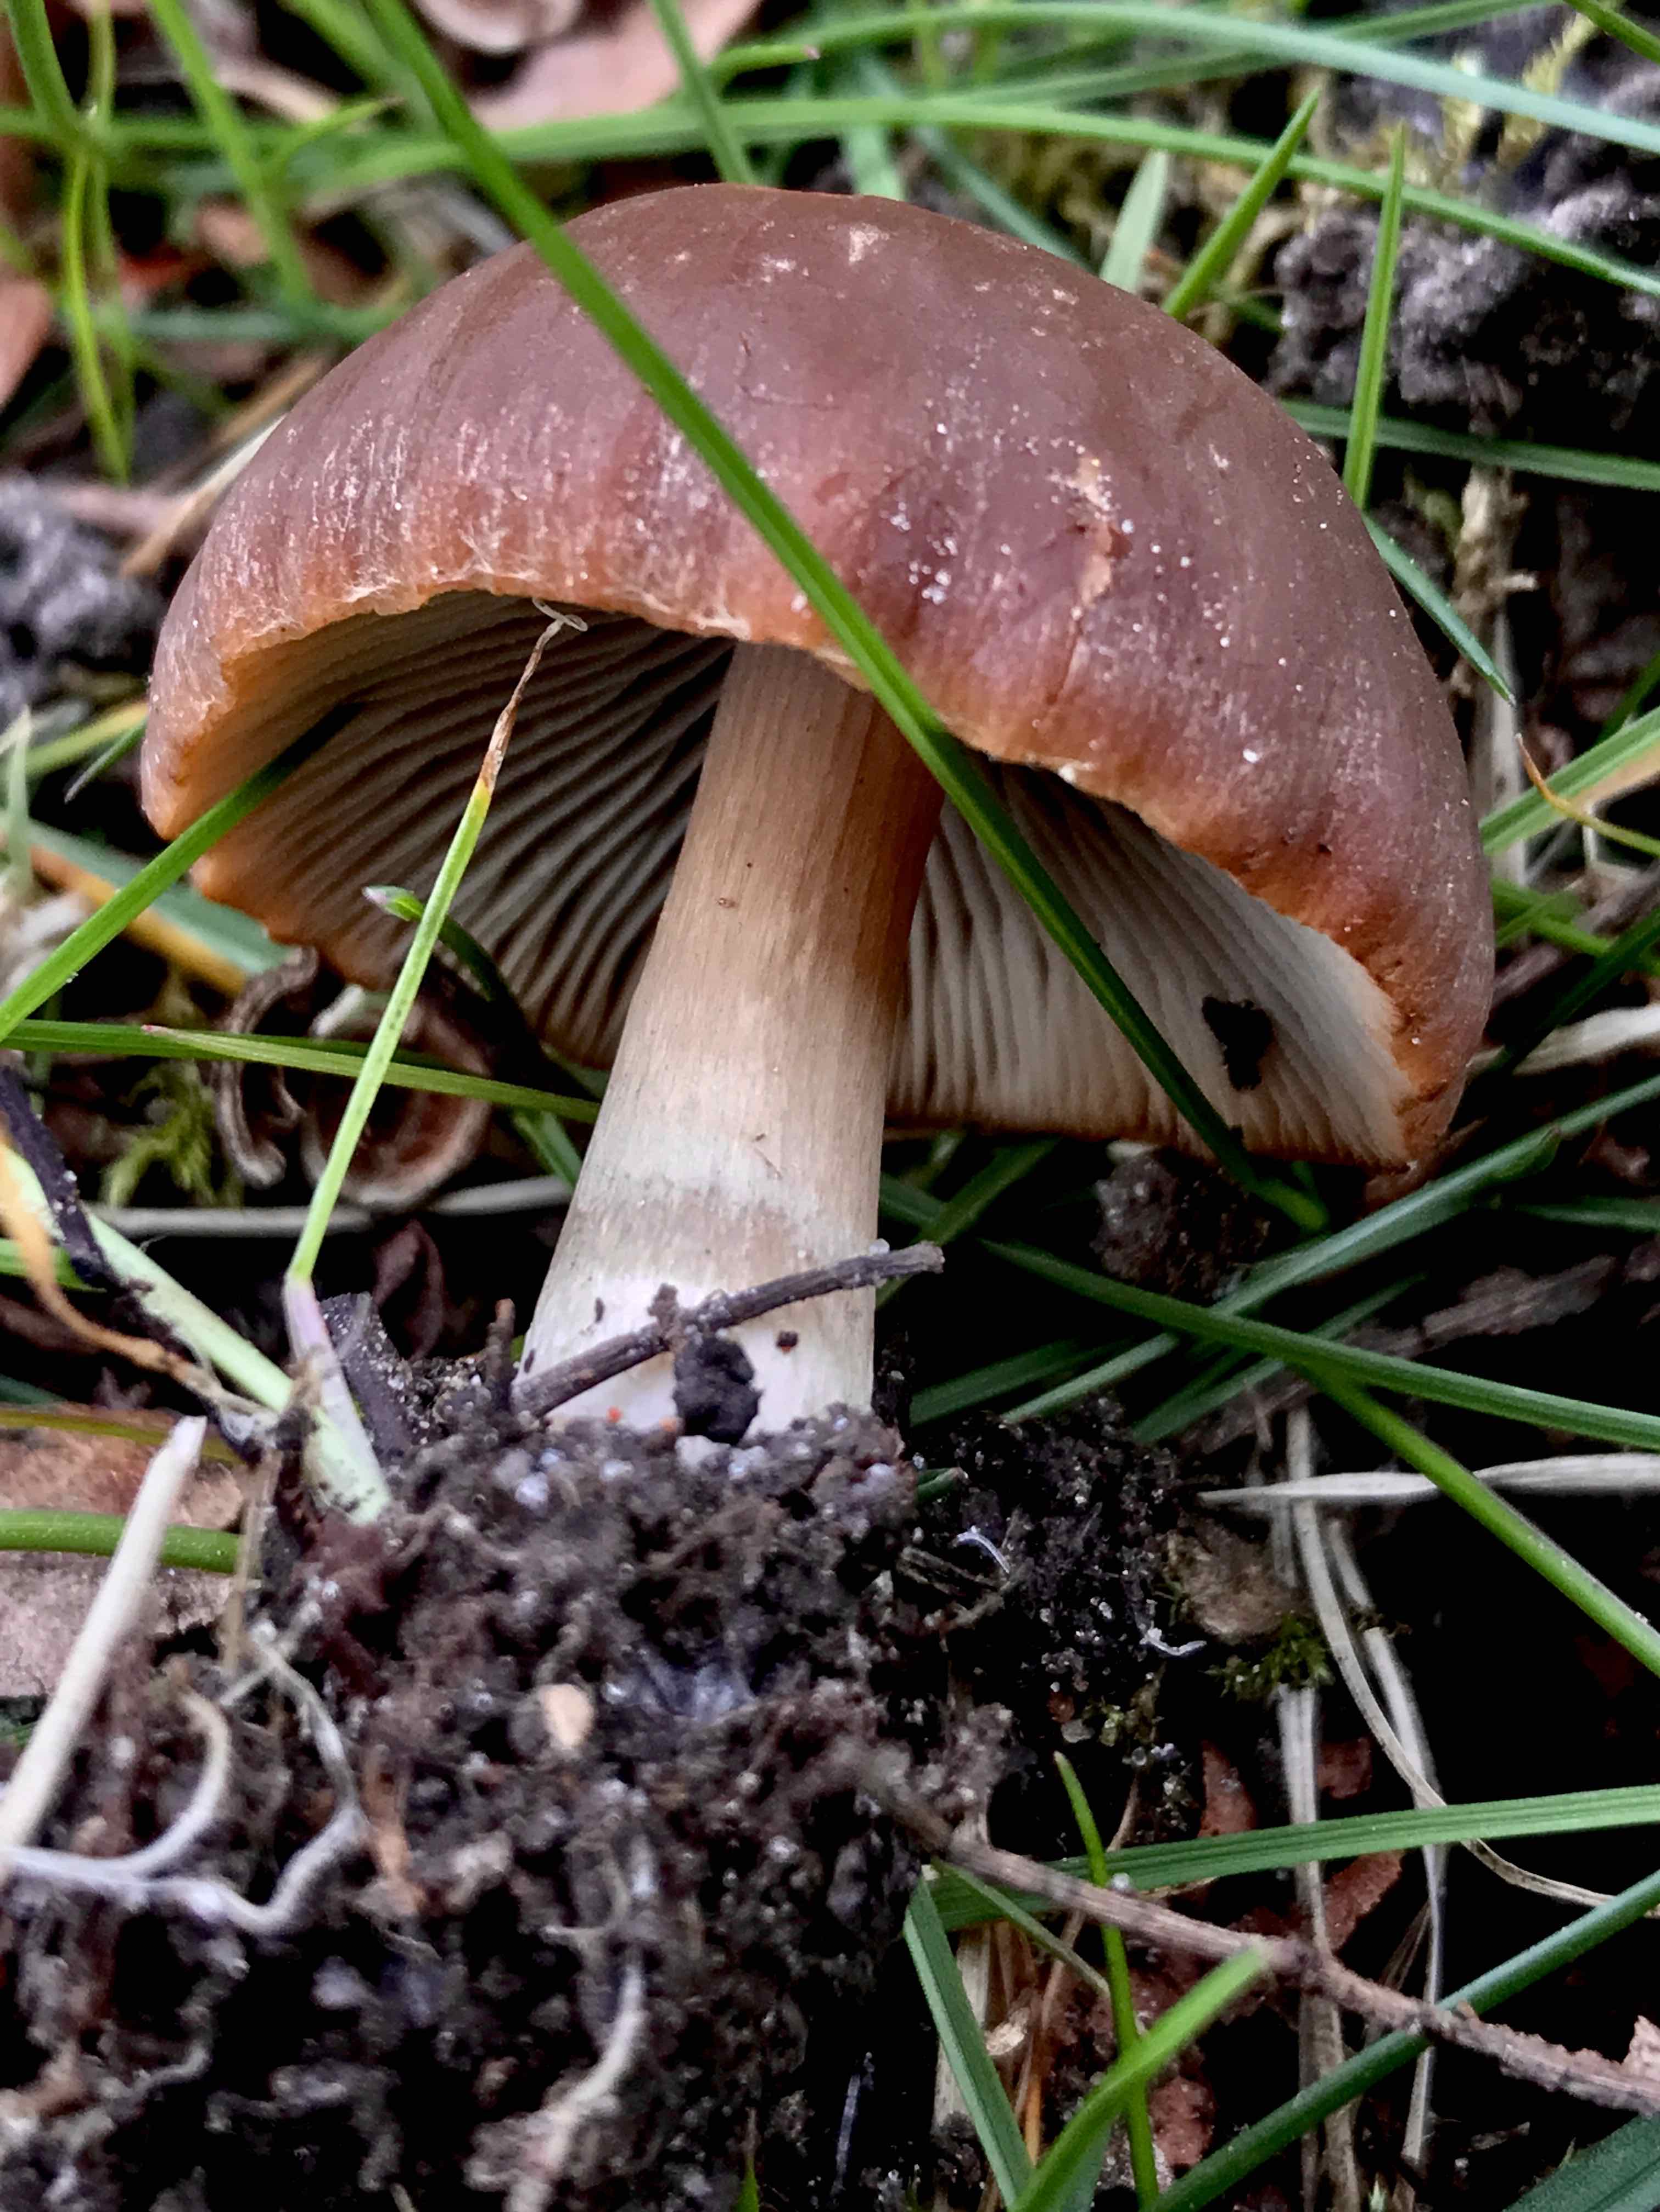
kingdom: Fungi
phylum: Basidiomycota
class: Agaricomycetes
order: Agaricales
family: Psathyrellaceae
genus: Psathyrella
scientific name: Psathyrella
